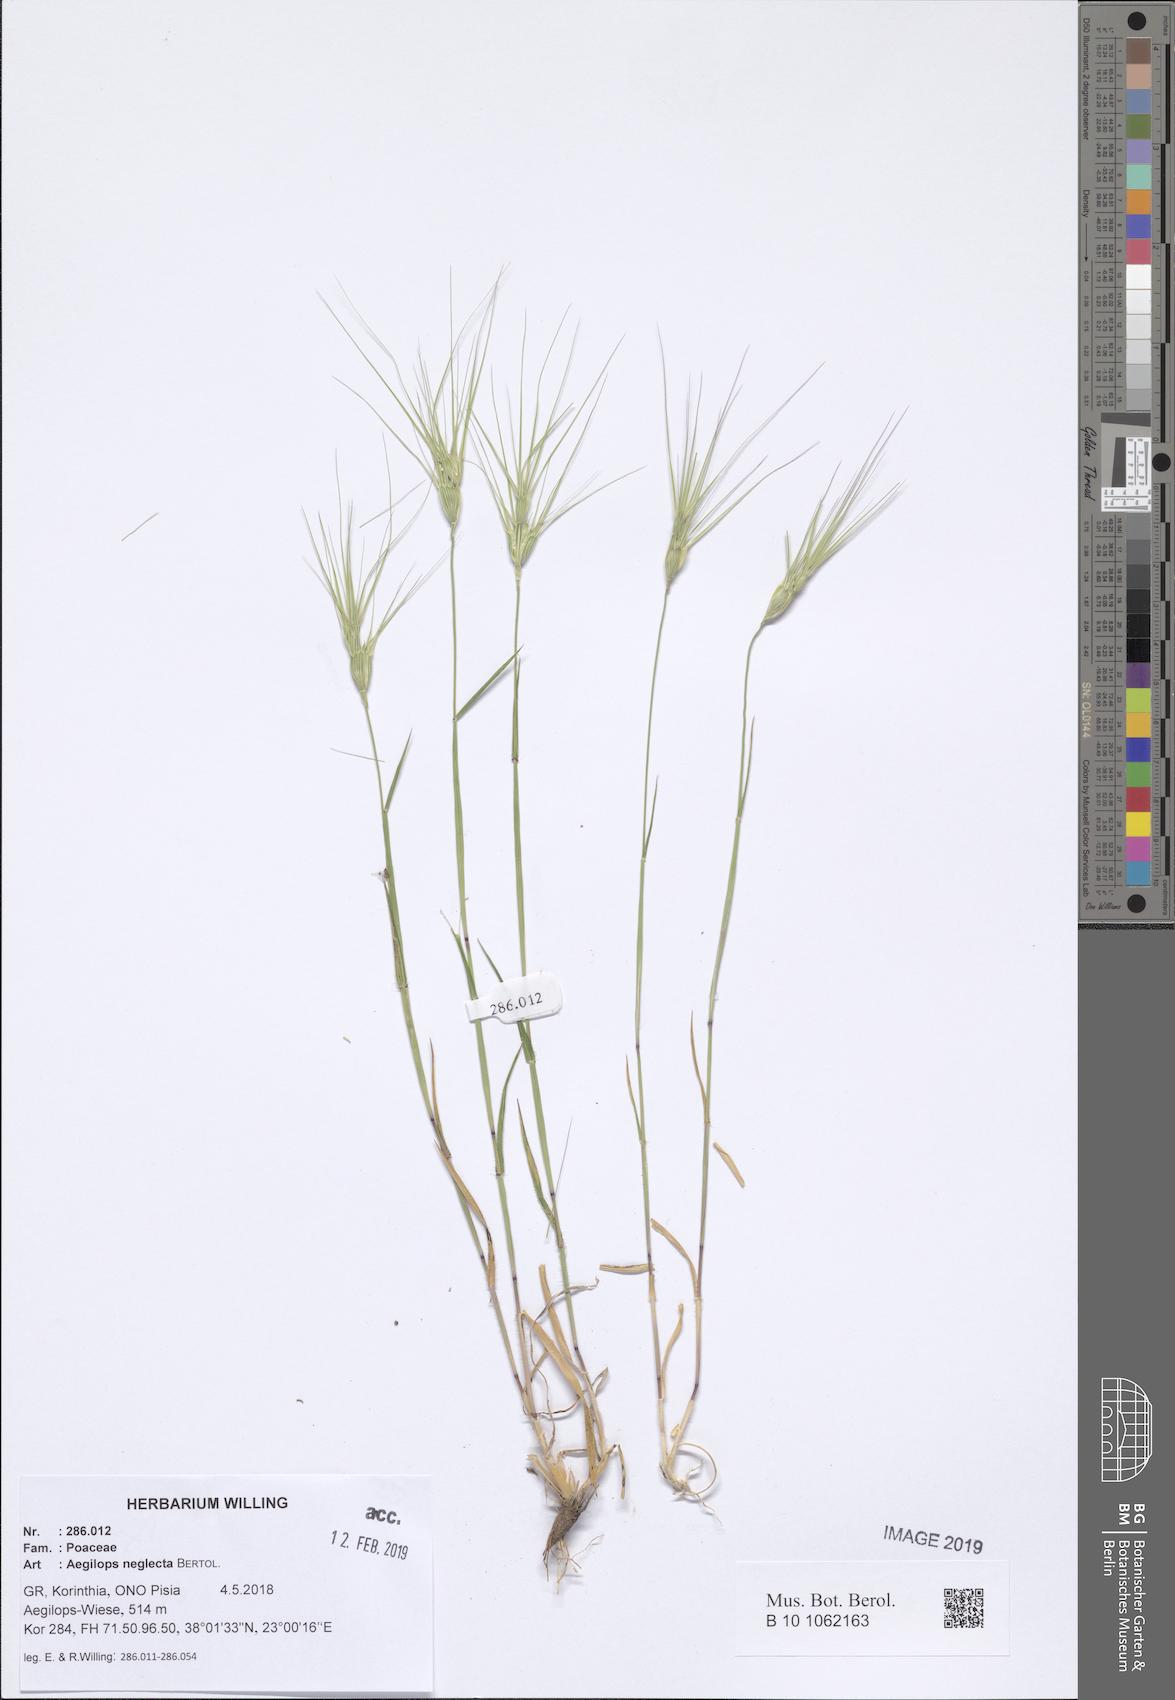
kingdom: Plantae
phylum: Tracheophyta
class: Liliopsida
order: Poales
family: Poaceae
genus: Aegilops
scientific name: Aegilops neglecta
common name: Three-awn goat grass
